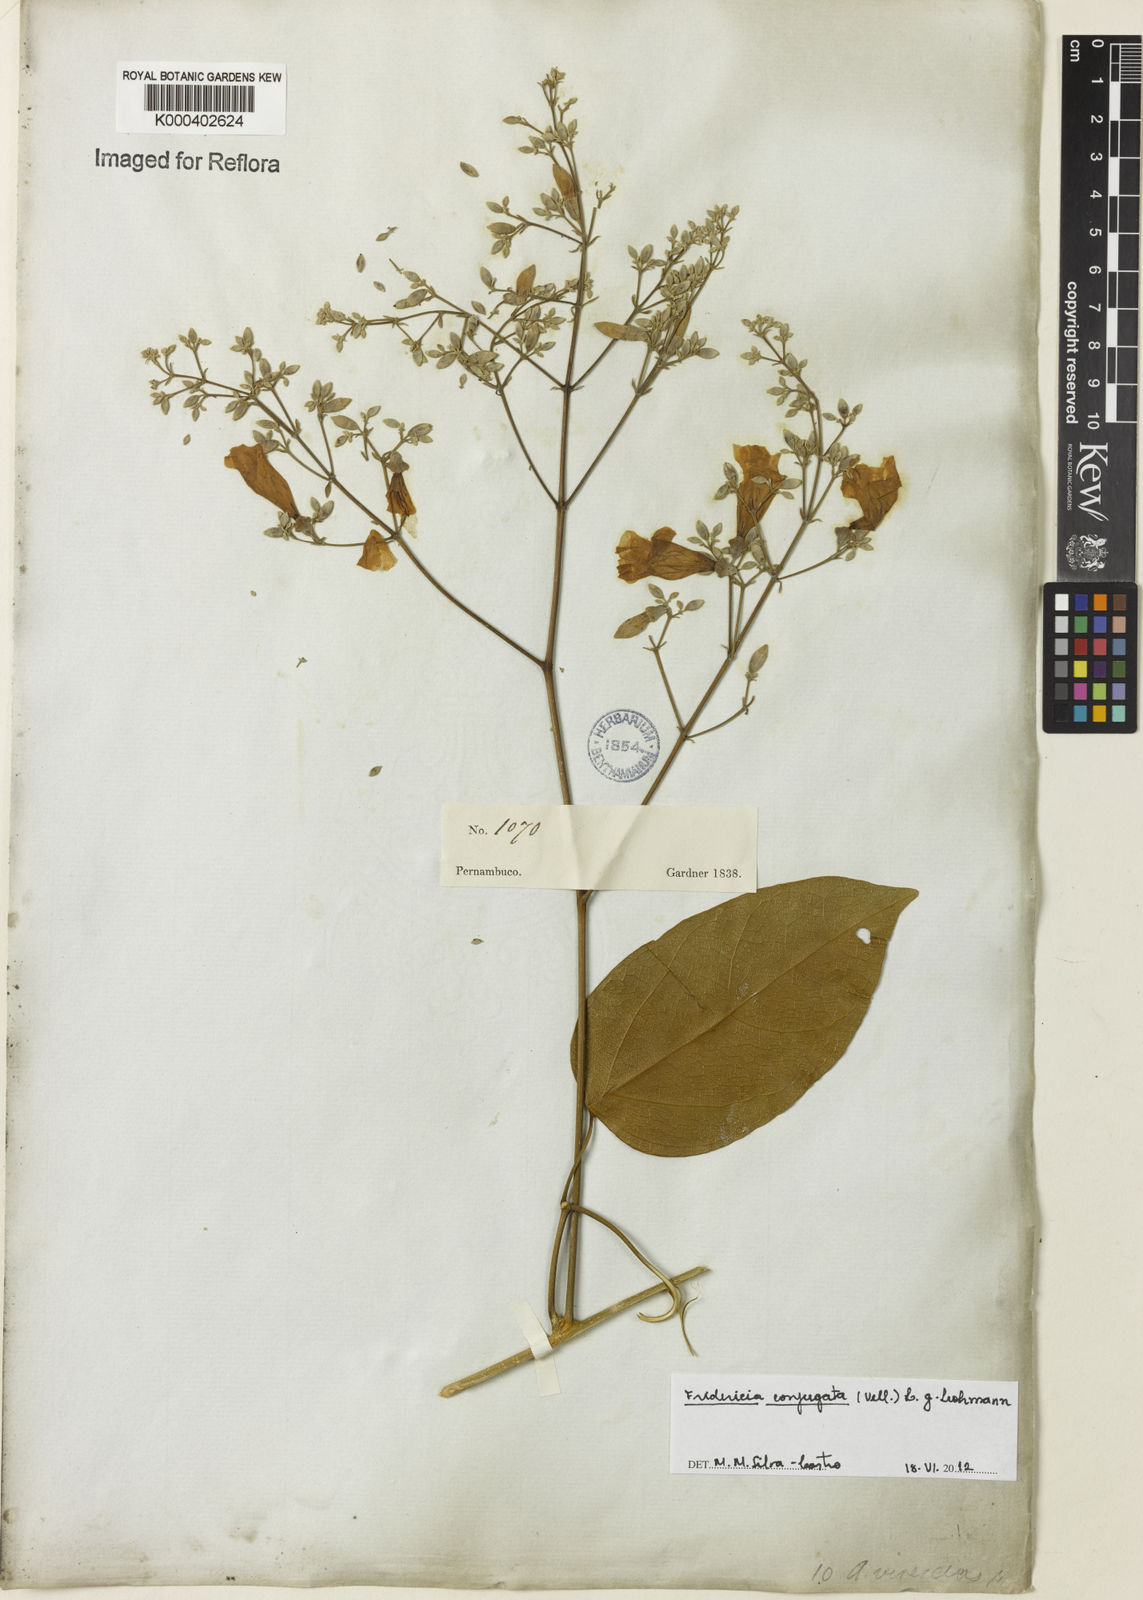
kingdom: Plantae
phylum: Tracheophyta
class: Magnoliopsida
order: Lamiales
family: Bignoniaceae
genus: Fridericia
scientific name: Fridericia conjugata
